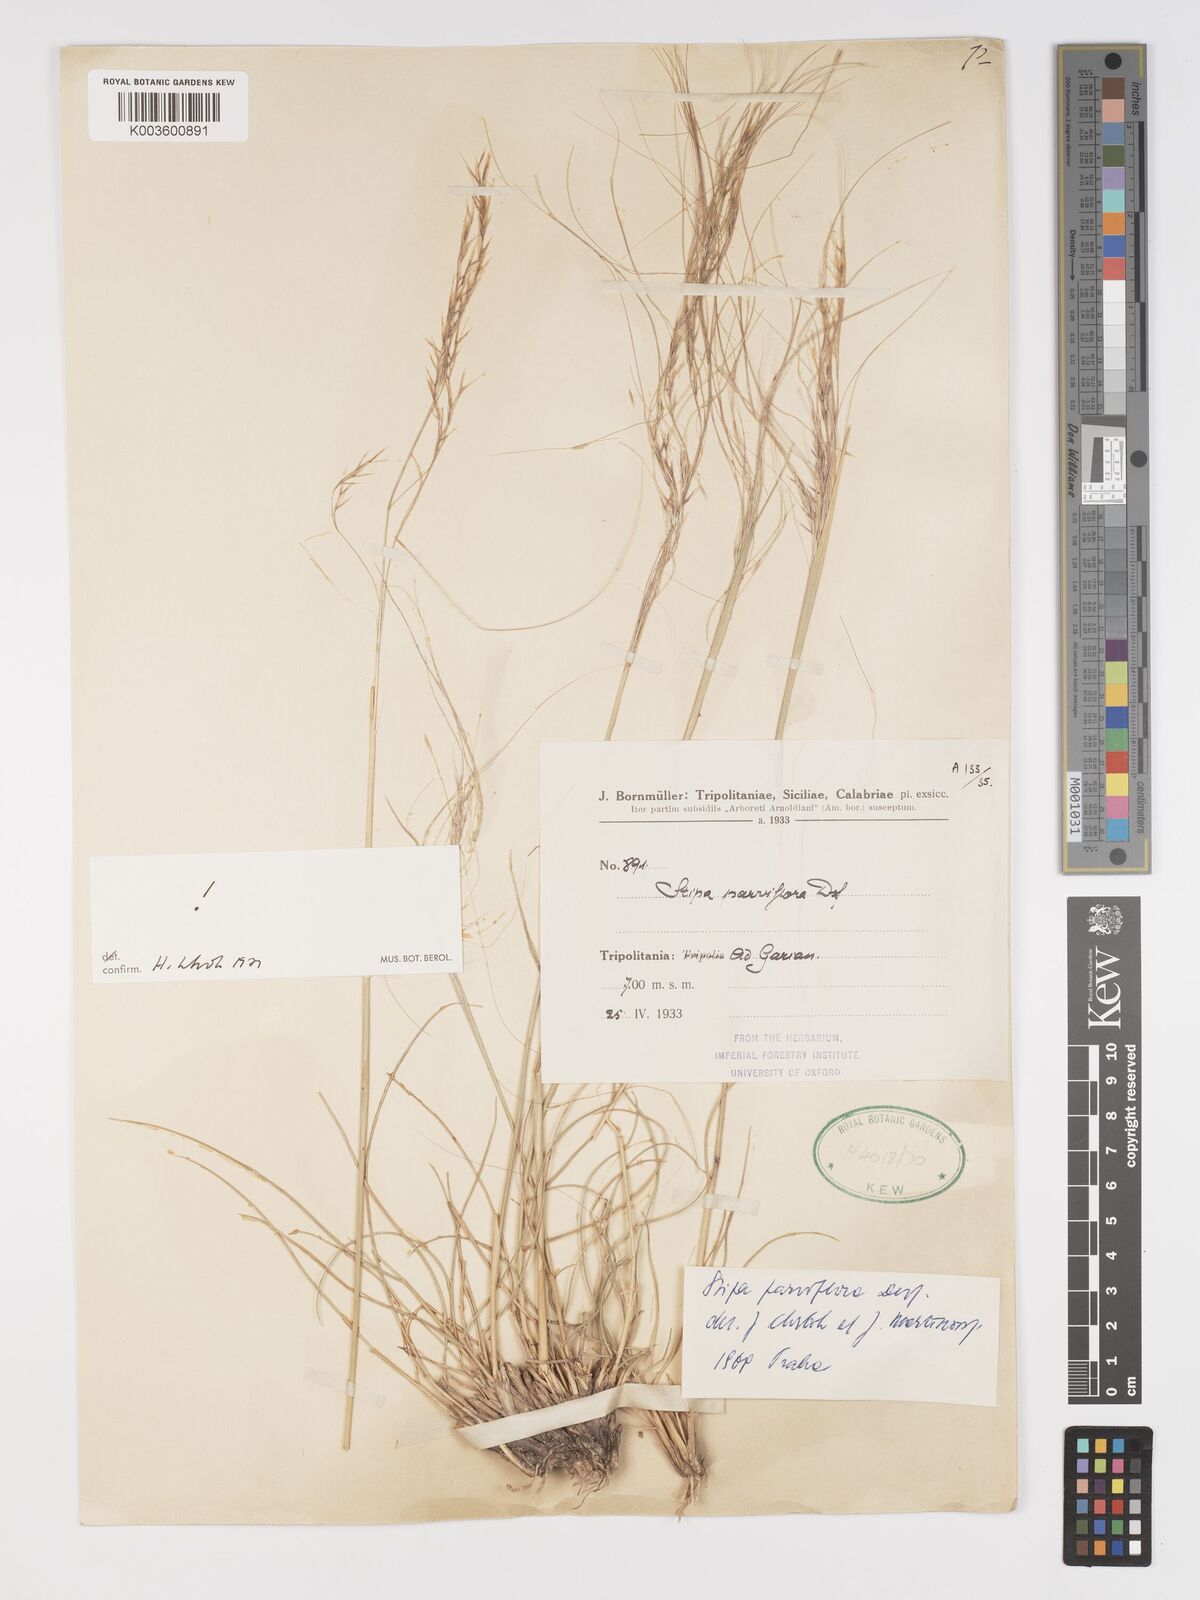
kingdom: Plantae
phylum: Tracheophyta
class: Liliopsida
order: Poales
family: Poaceae
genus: Achnatherum
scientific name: Achnatherum parviflorum
